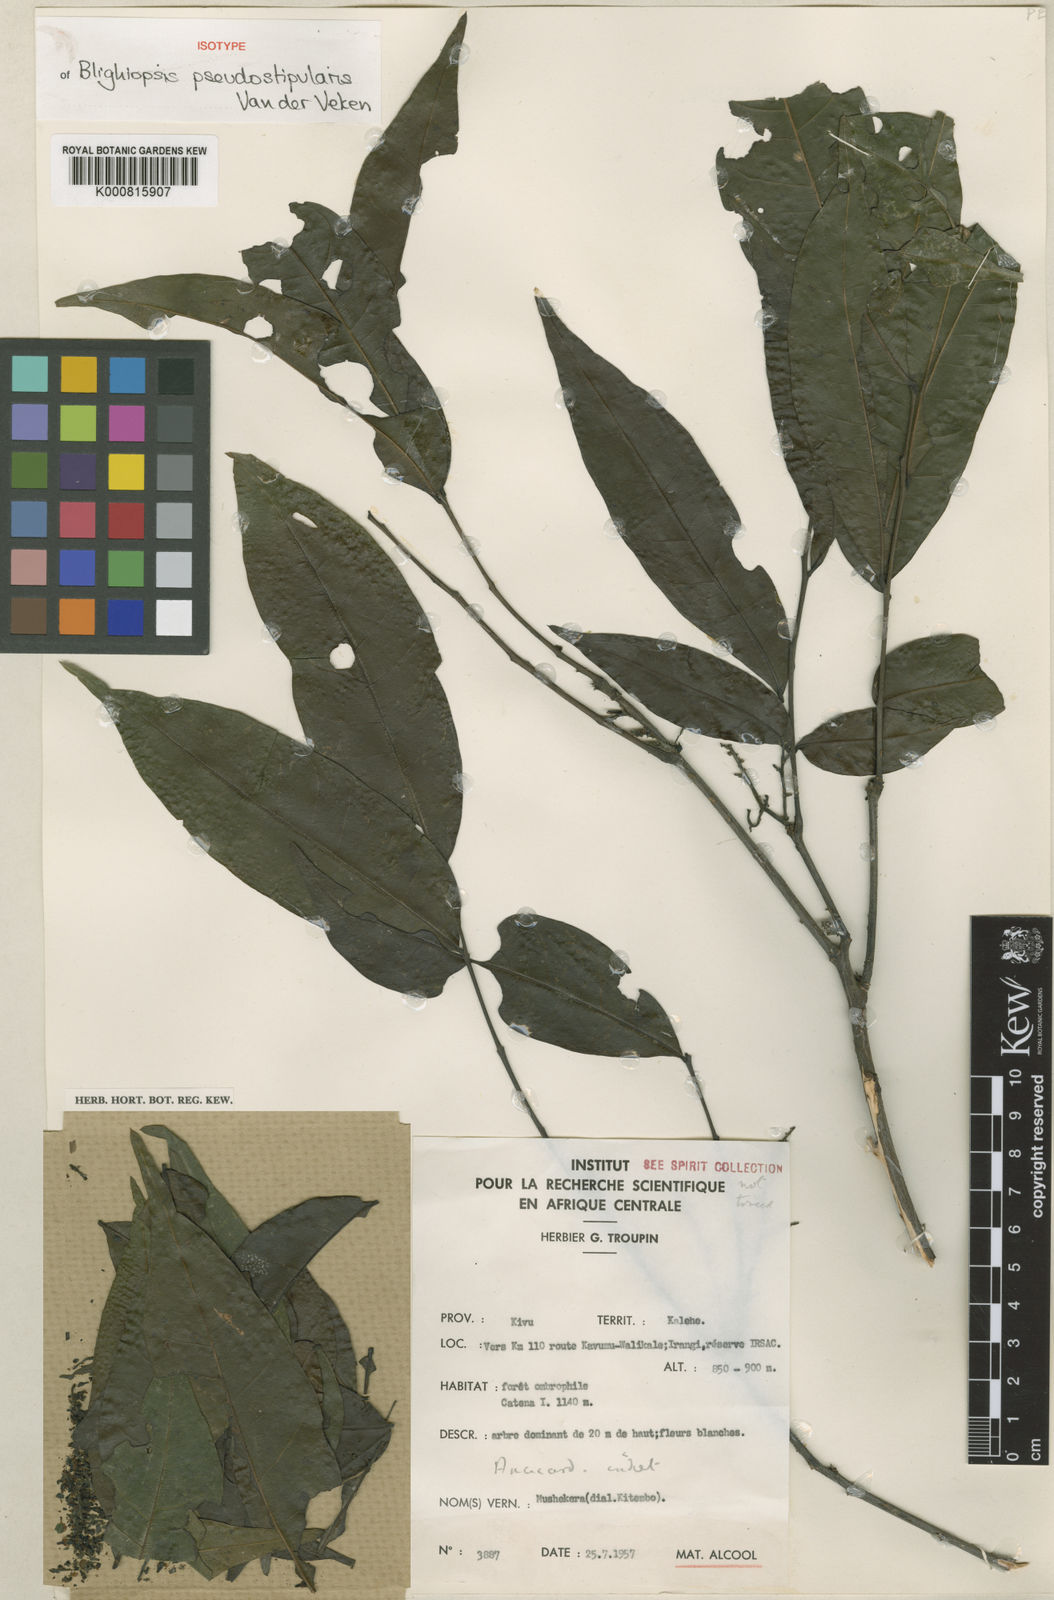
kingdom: Plantae
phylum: Tracheophyta
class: Magnoliopsida
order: Sapindales
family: Sapindaceae
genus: Blighiopsis
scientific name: Blighiopsis pseudostipularis
